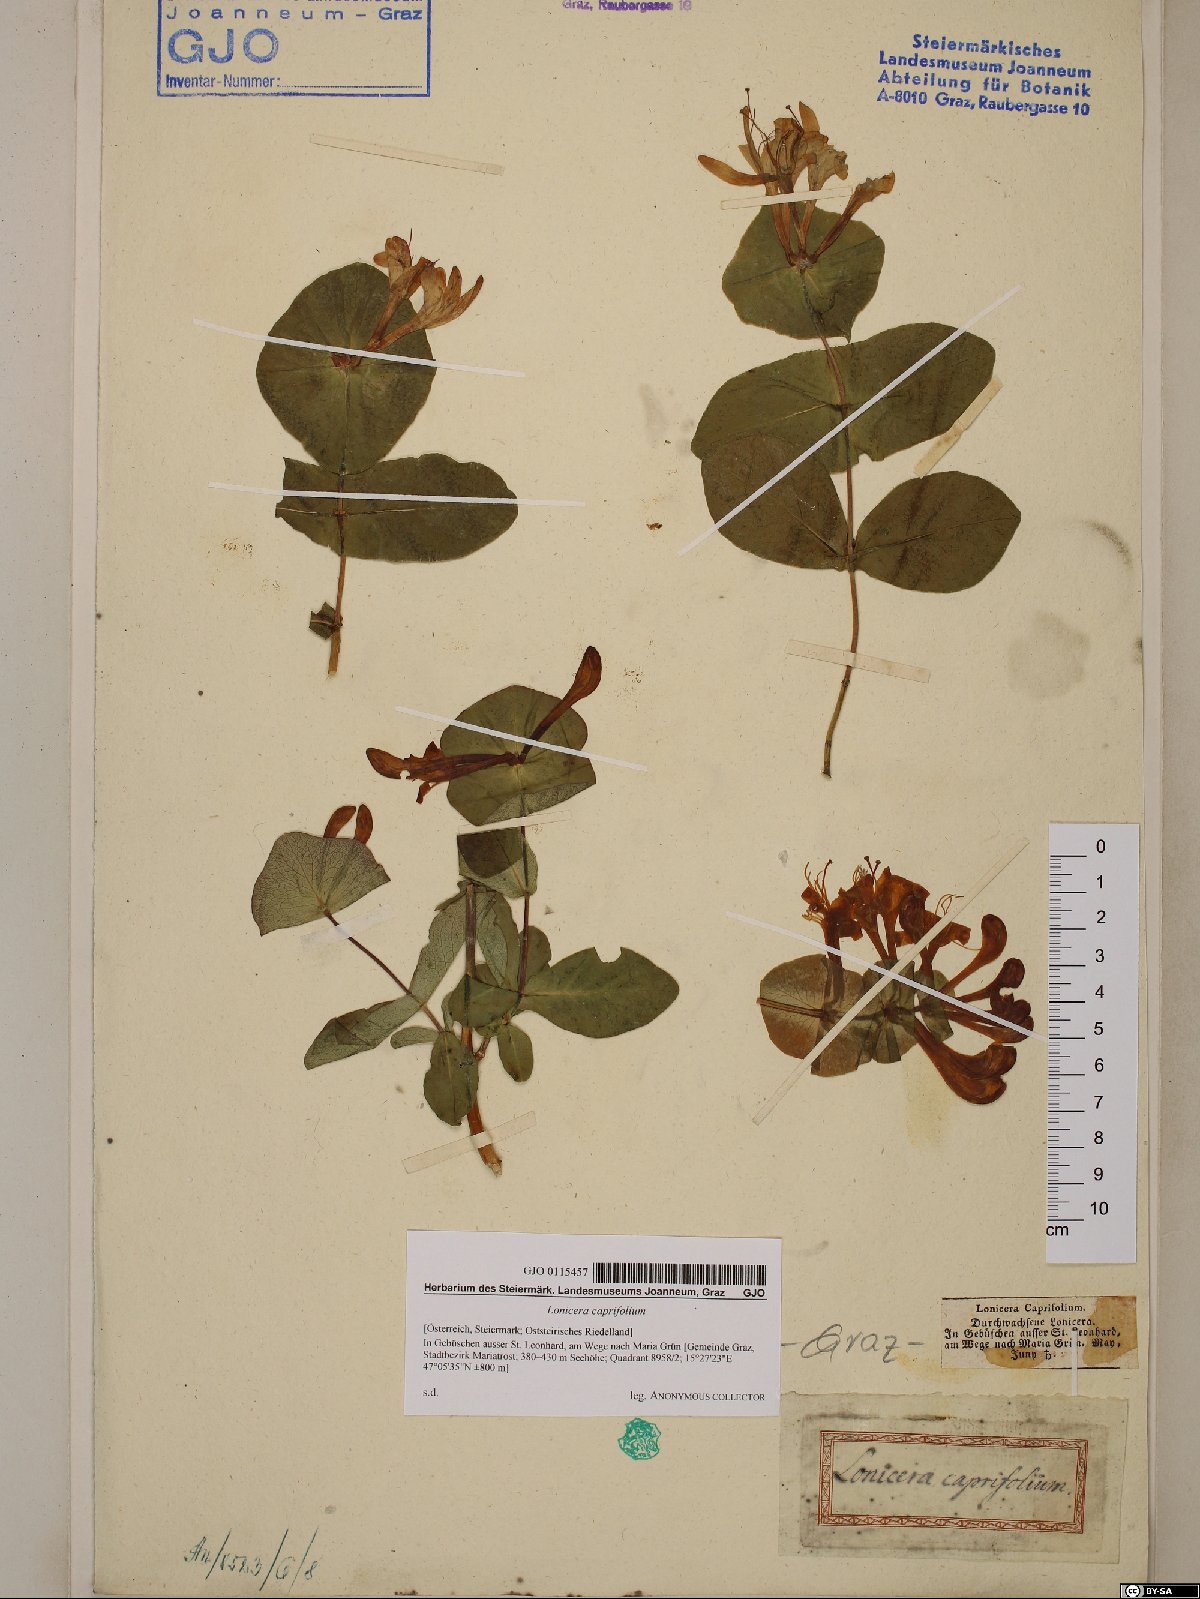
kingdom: Plantae
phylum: Tracheophyta
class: Magnoliopsida
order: Dipsacales
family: Caprifoliaceae
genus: Lonicera
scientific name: Lonicera caprifolium
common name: Perfoliate honeysuckle
